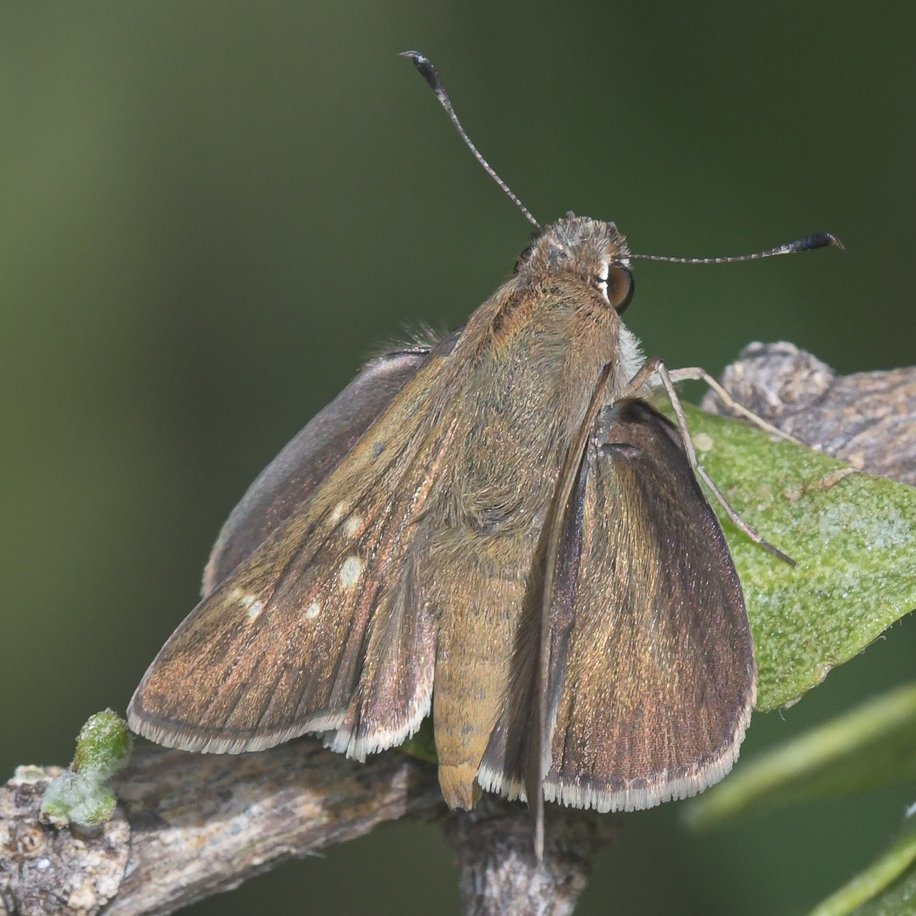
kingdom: Animalia
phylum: Arthropoda
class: Insecta
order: Lepidoptera
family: Hesperiidae
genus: Lerodea
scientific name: Lerodea eufala
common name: Eufala Skipper
